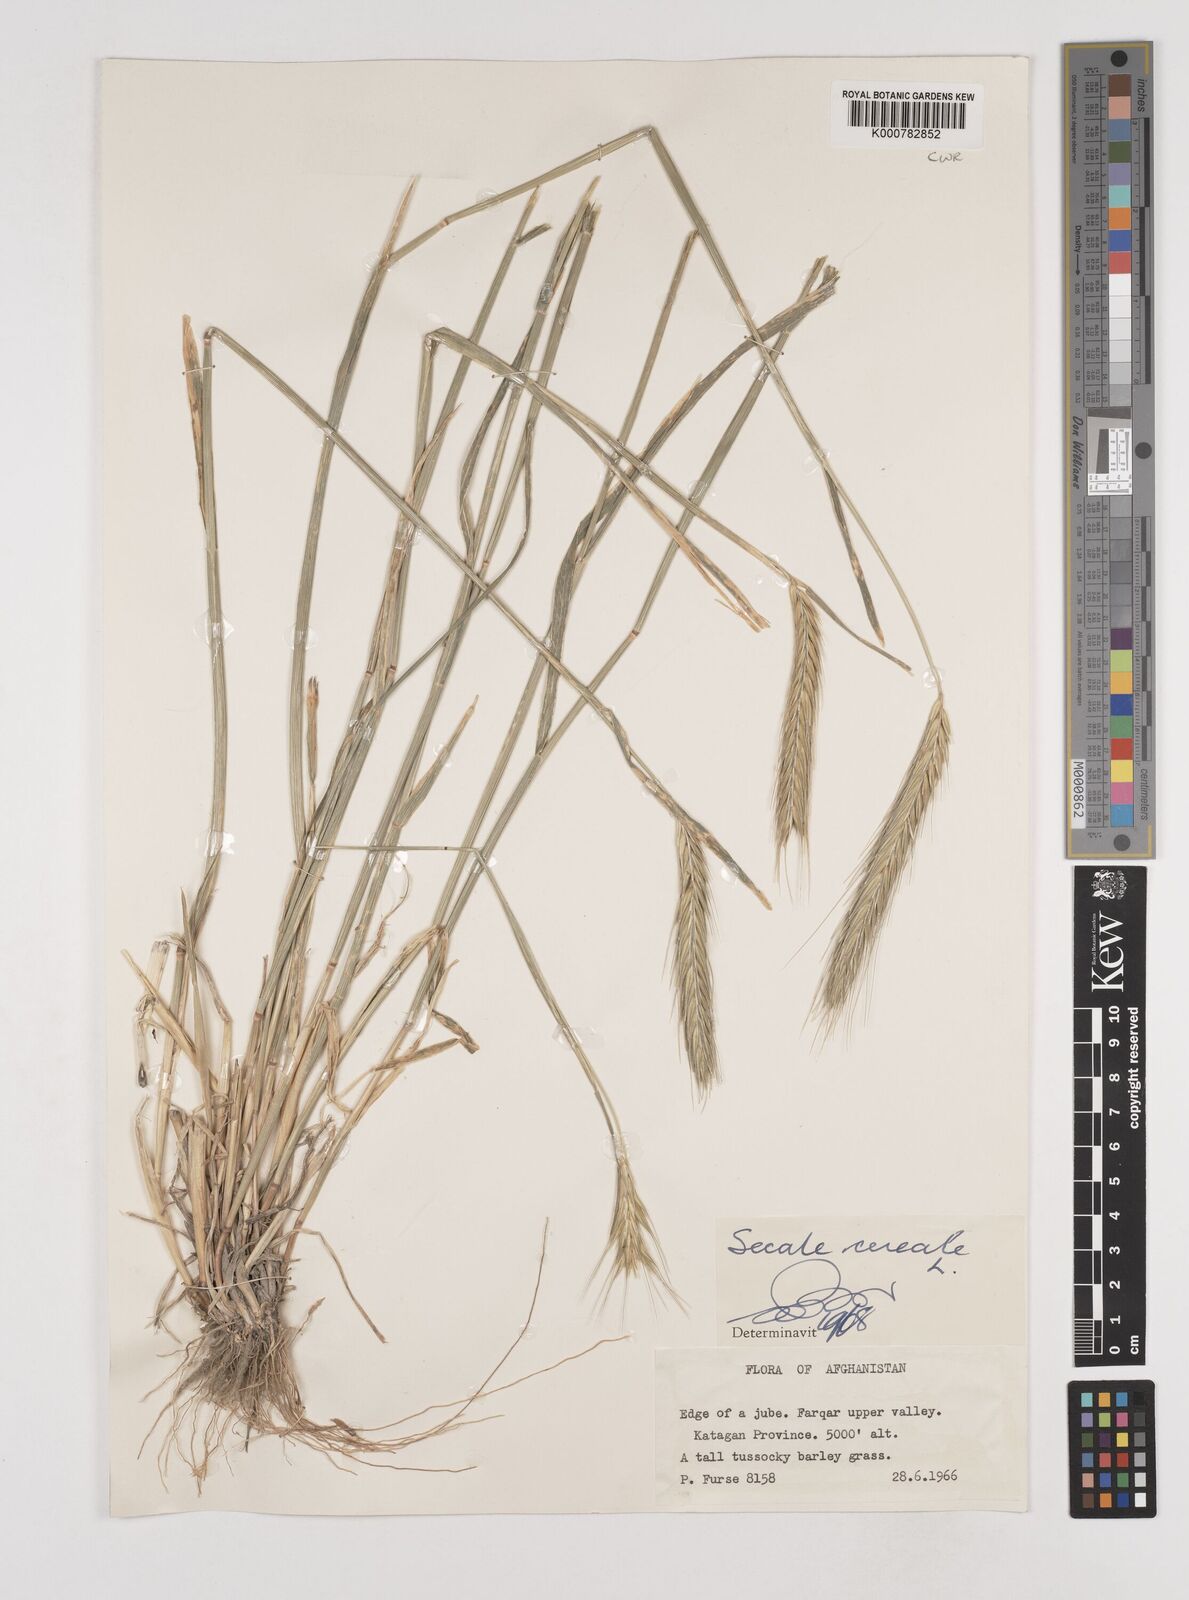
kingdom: Plantae
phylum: Tracheophyta
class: Liliopsida
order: Poales
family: Poaceae
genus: Secale
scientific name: Secale cereale
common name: Rye
